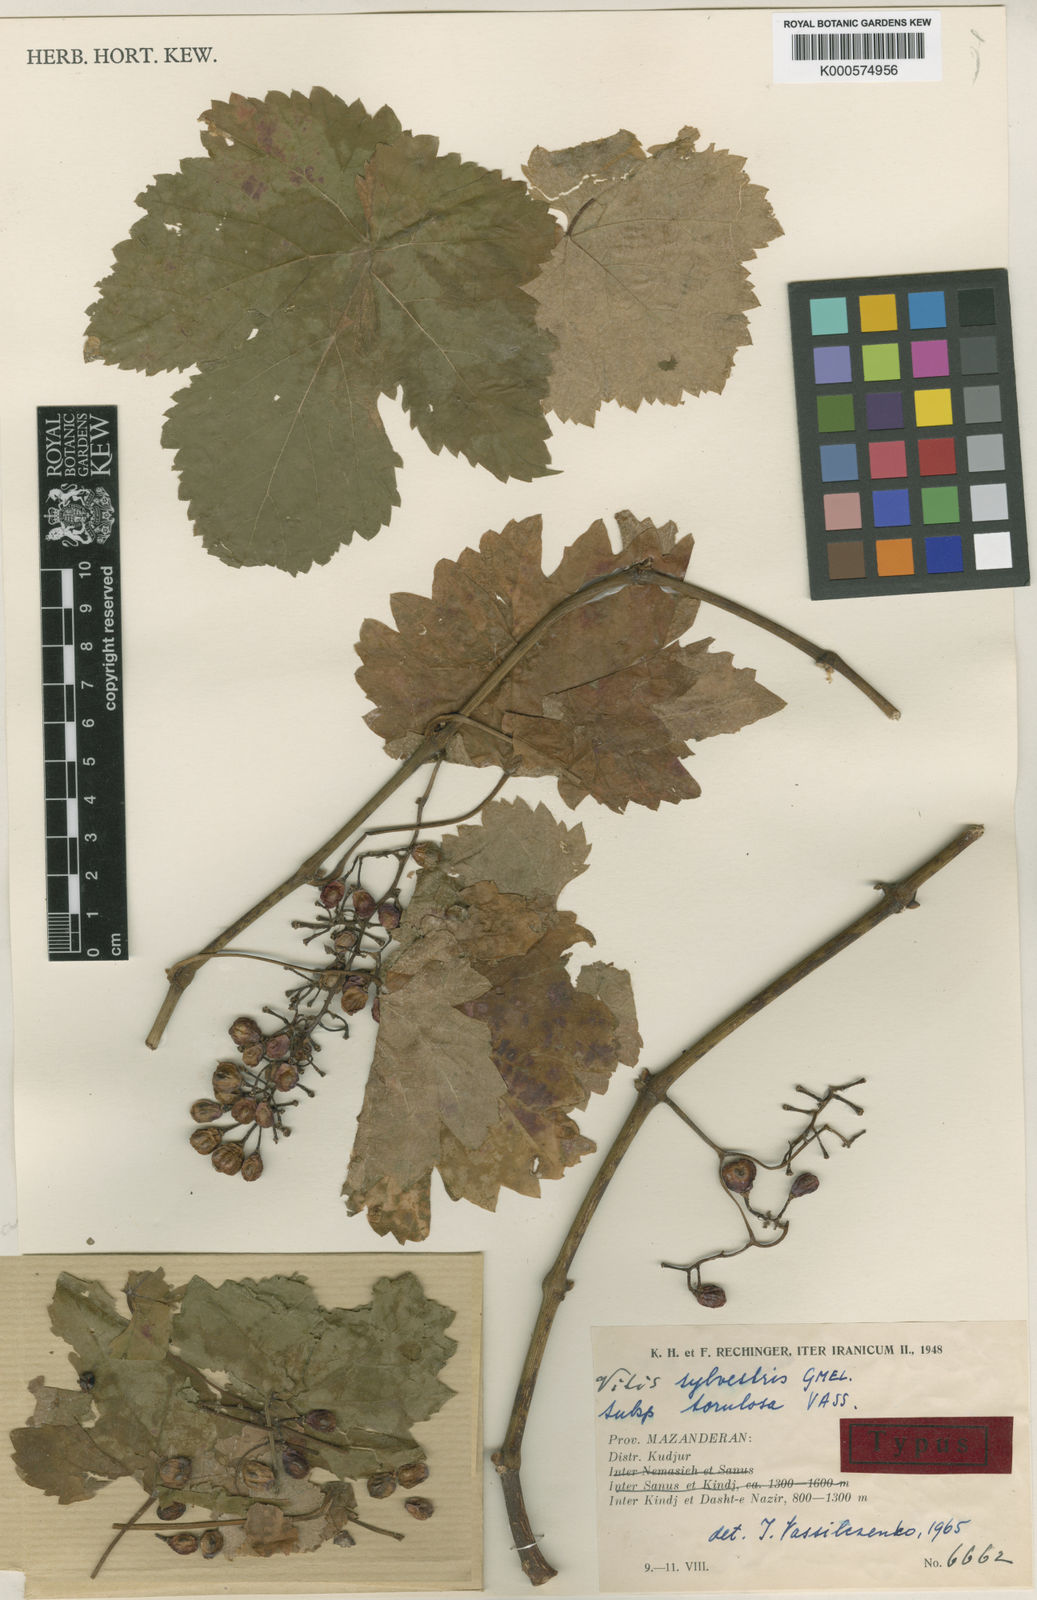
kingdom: Plantae
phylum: Tracheophyta
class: Magnoliopsida
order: Vitales
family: Vitaceae
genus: Vitis
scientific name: Vitis gmelinii
